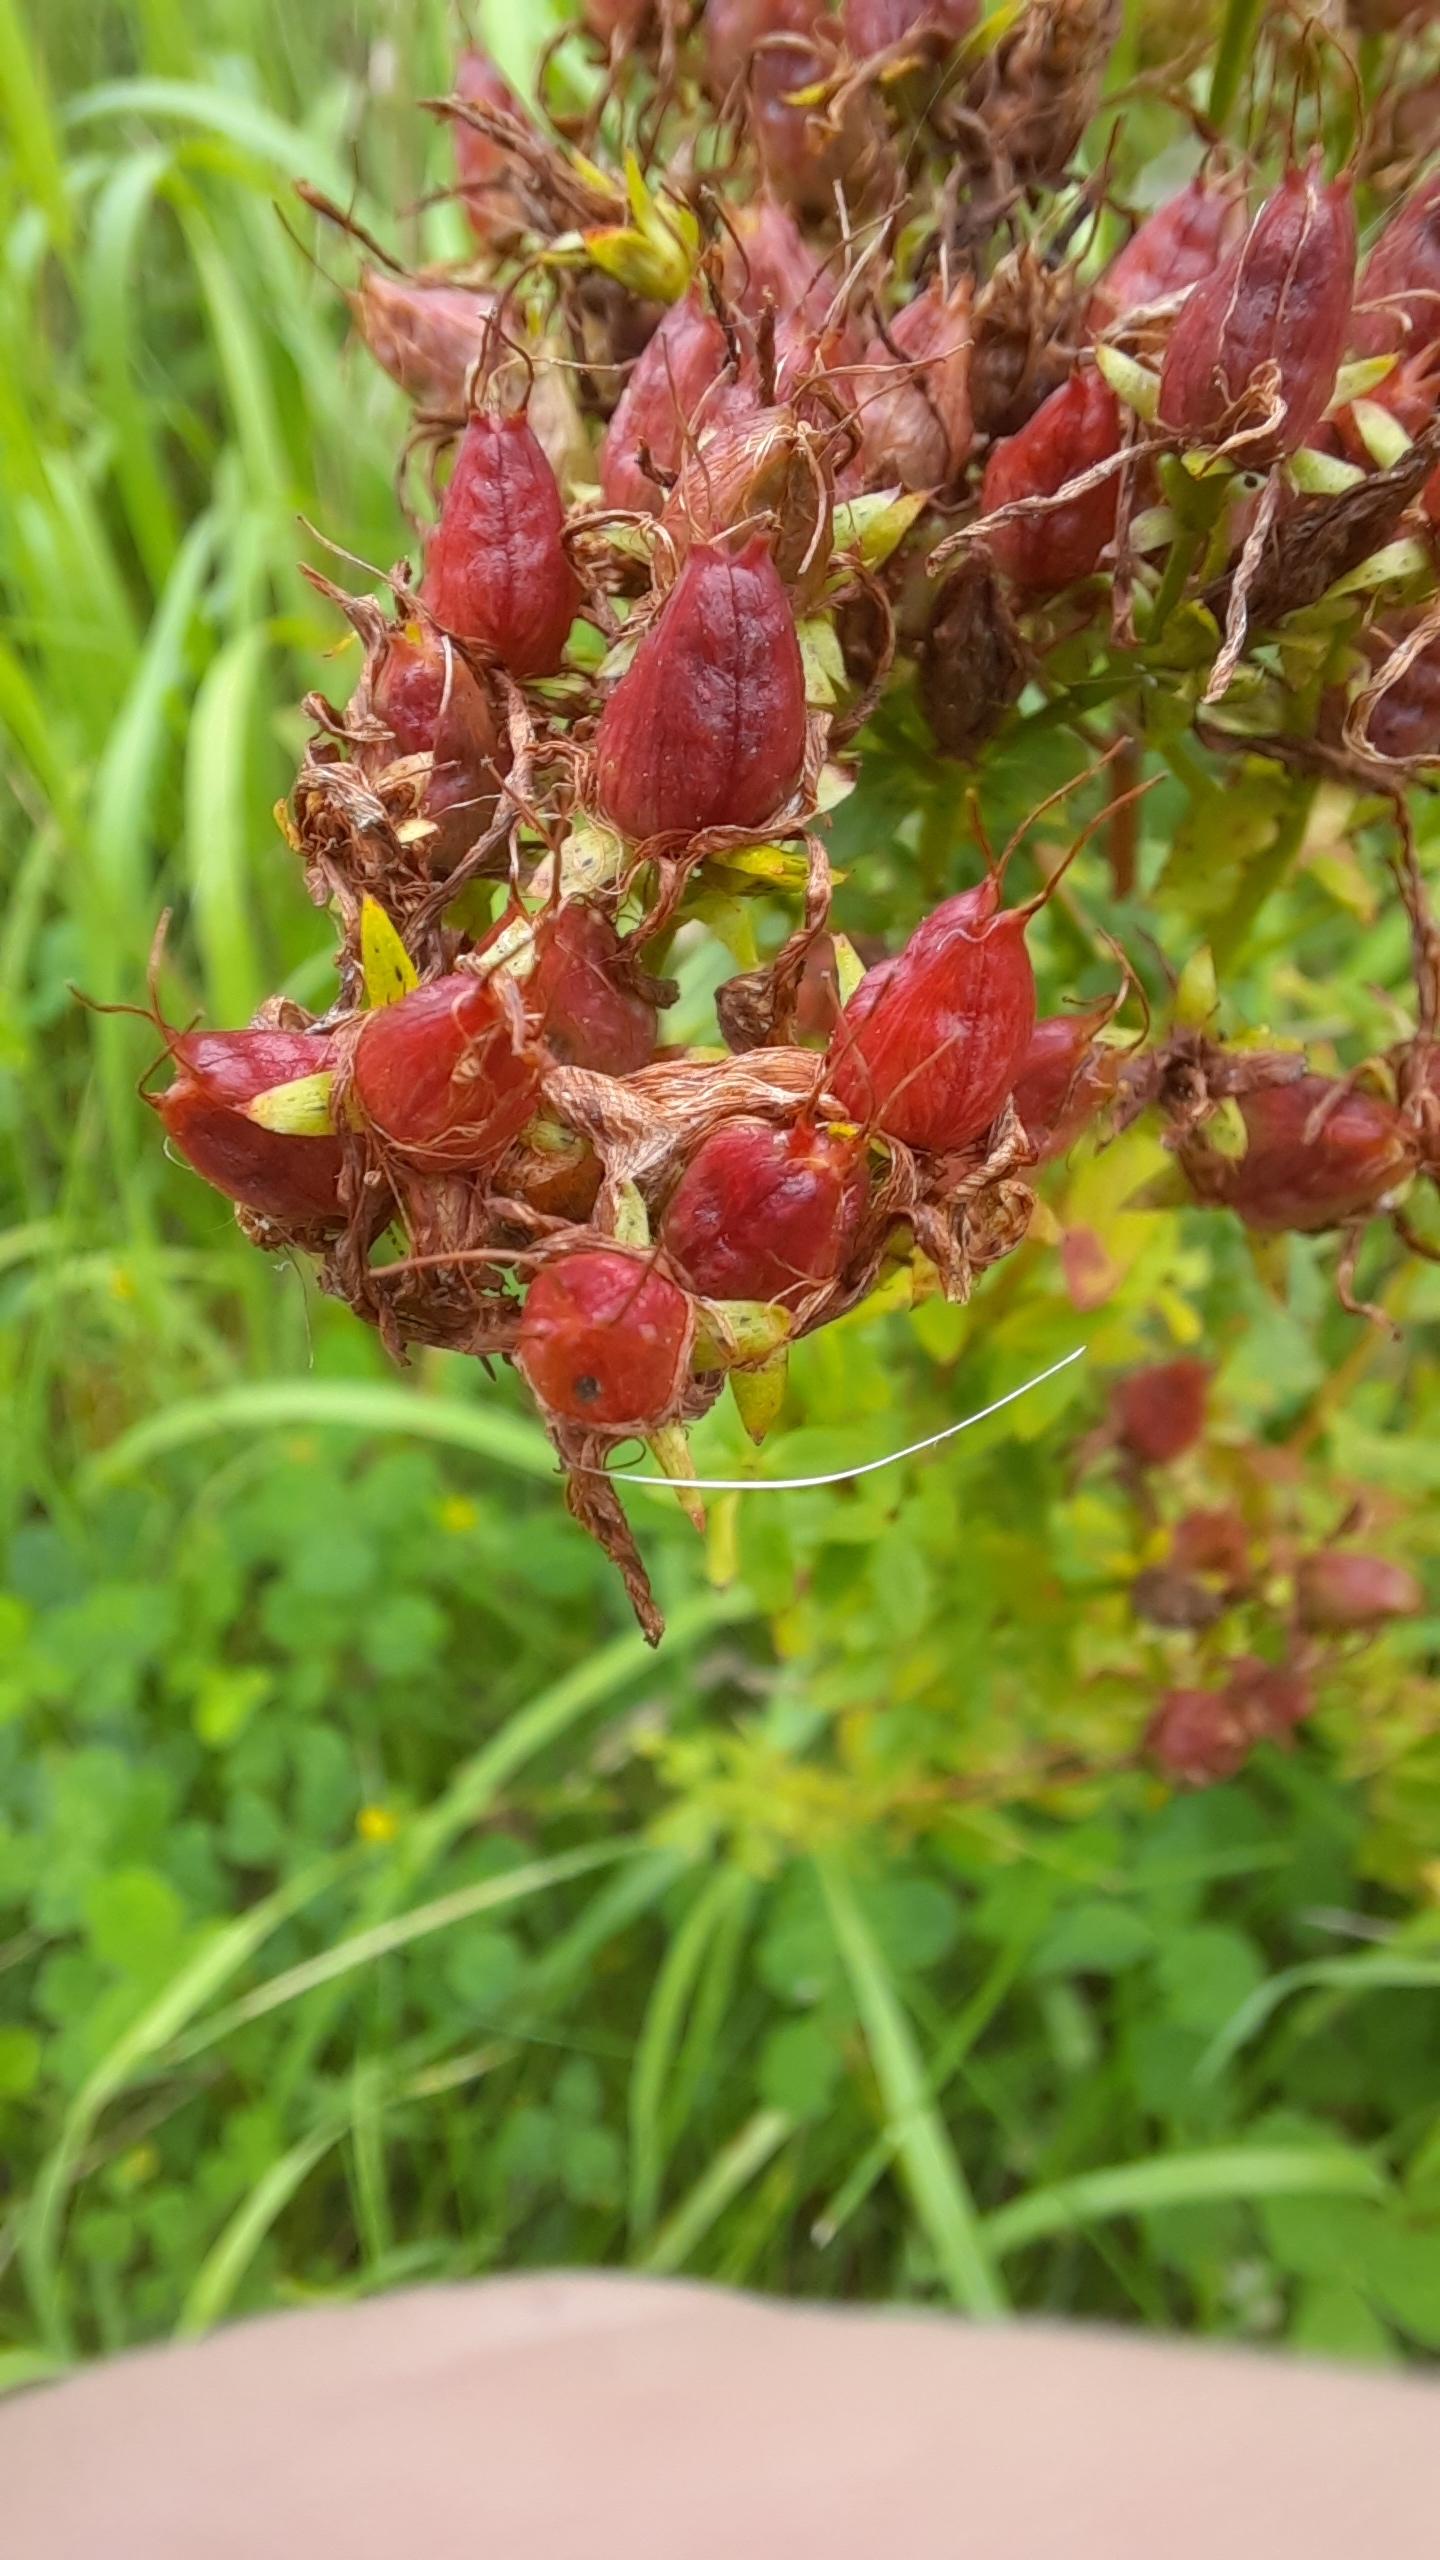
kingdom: Plantae
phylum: Tracheophyta
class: Magnoliopsida
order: Malpighiales
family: Hypericaceae
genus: Hypericum
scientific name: Hypericum perforatum
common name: Prikbladet perikon
